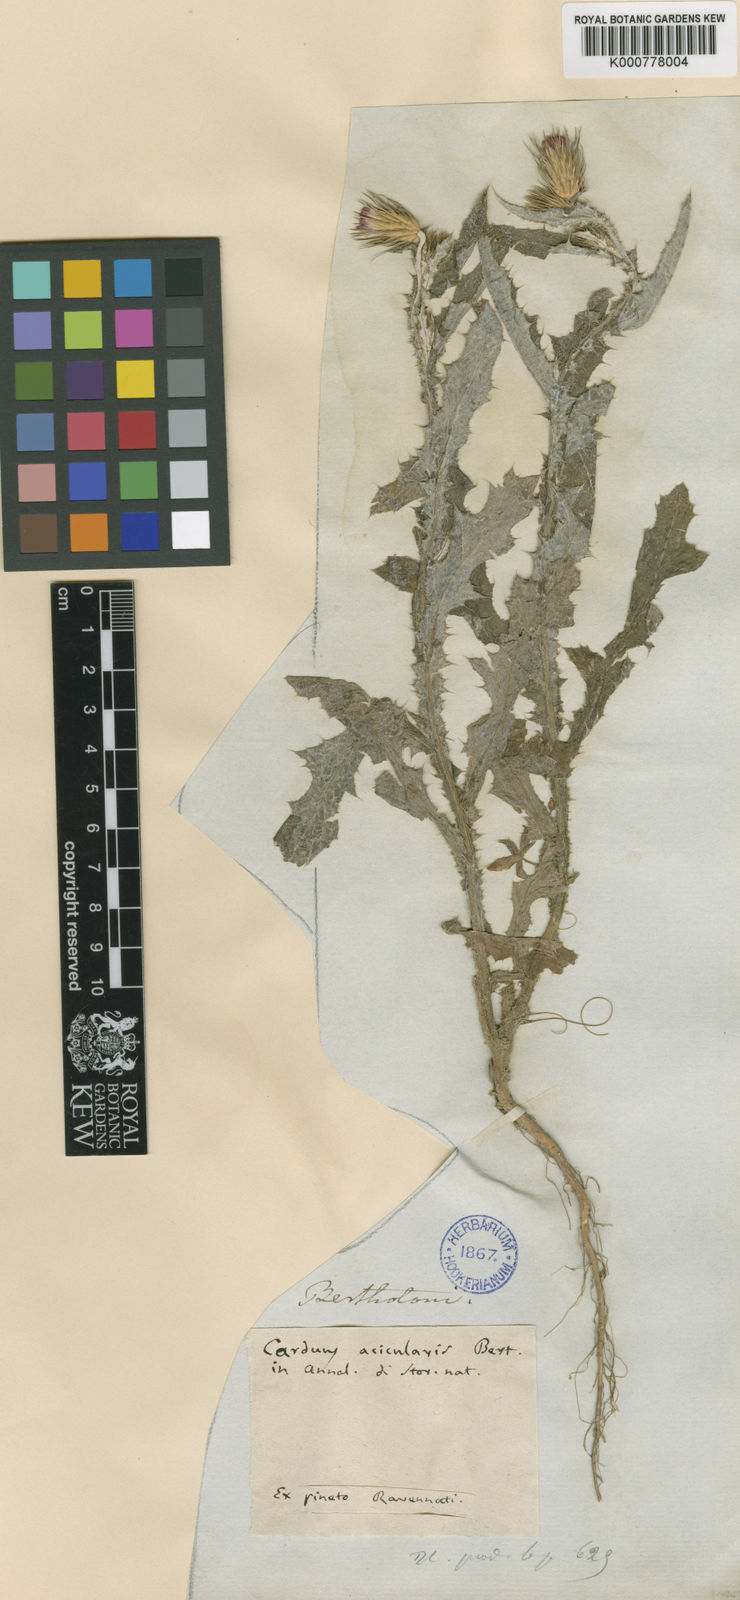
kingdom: Plantae
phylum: Tracheophyta
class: Magnoliopsida
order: Asterales
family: Asteraceae
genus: Carduus
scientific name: Carduus acicularis
